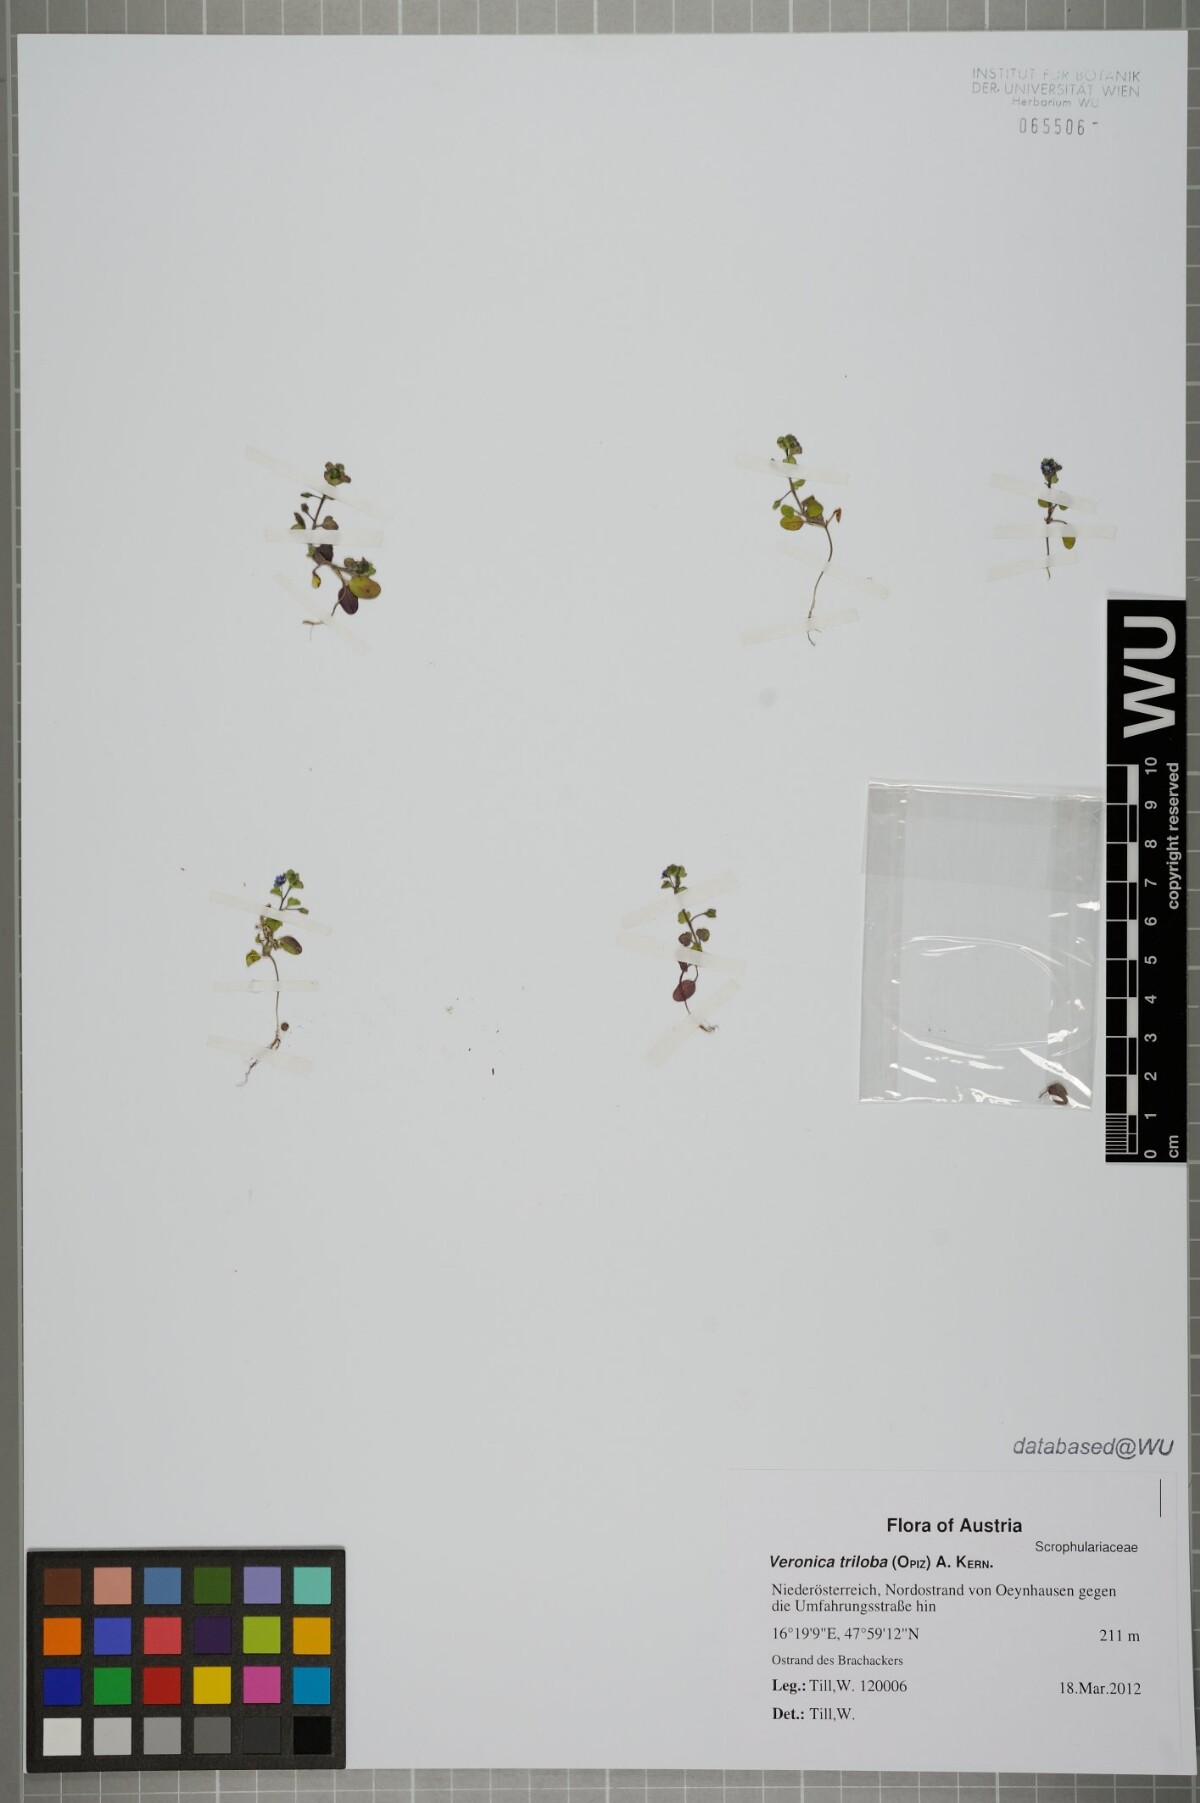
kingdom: Plantae
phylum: Tracheophyta
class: Magnoliopsida
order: Lamiales
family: Plantaginaceae
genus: Veronica
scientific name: Veronica triloba
